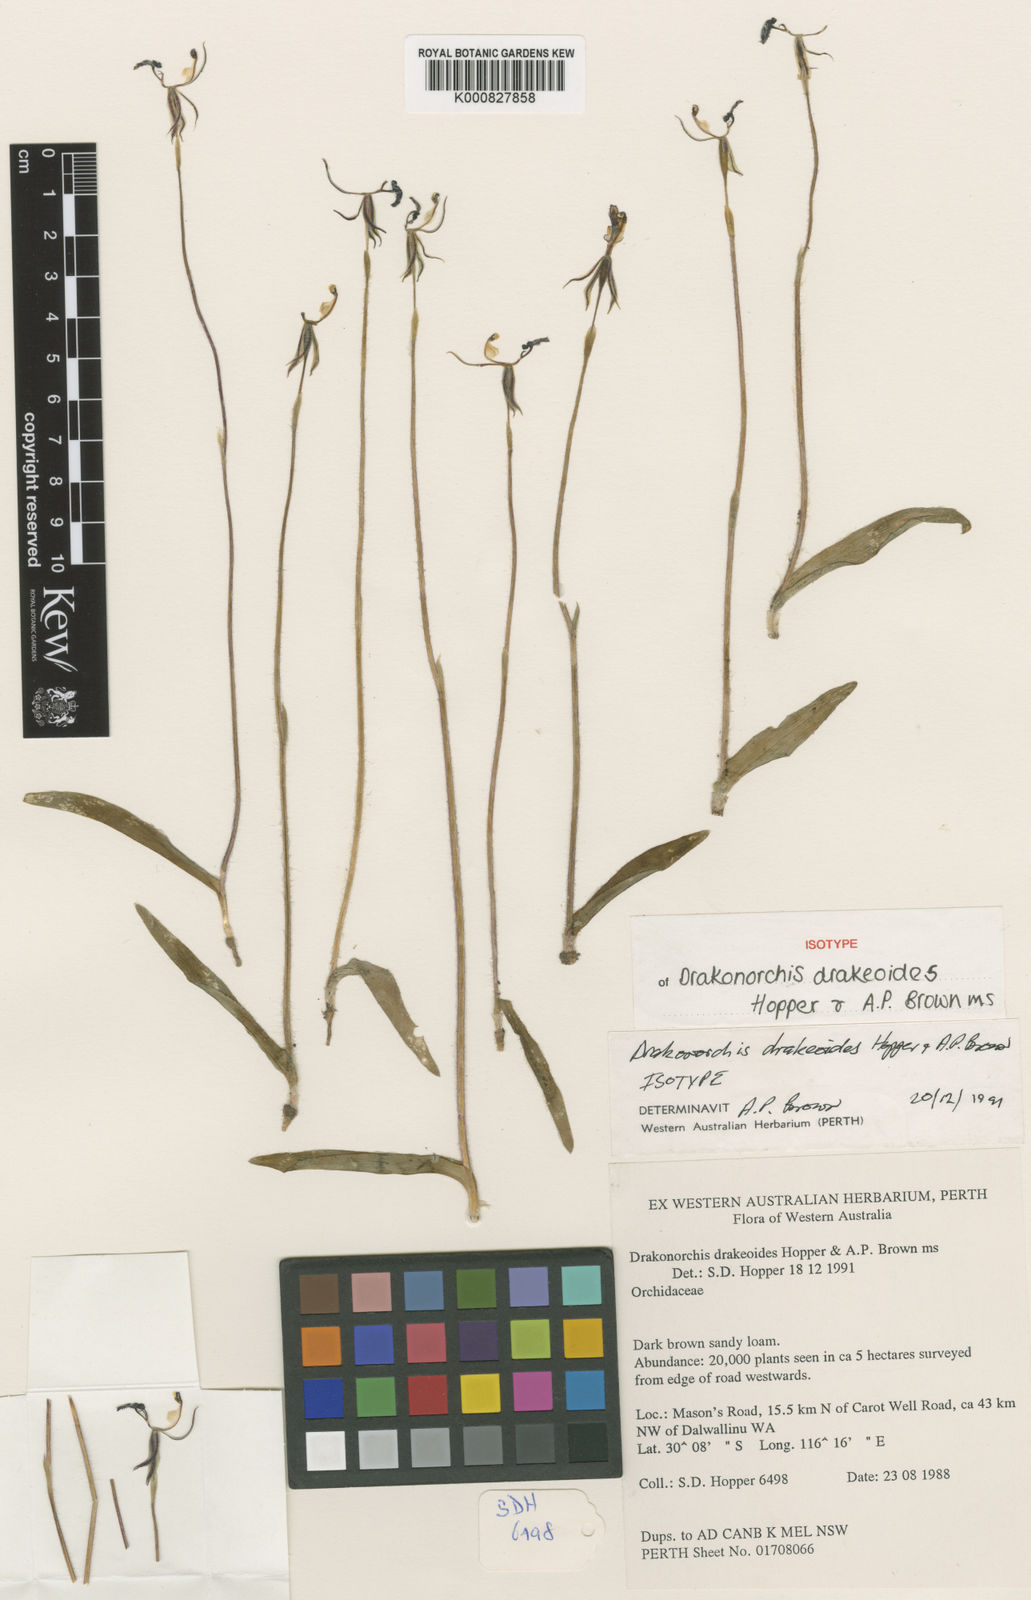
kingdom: Plantae
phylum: Tracheophyta
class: Liliopsida
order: Asparagales
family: Orchidaceae
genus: Caladenia
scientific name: Caladenia drakeoides
